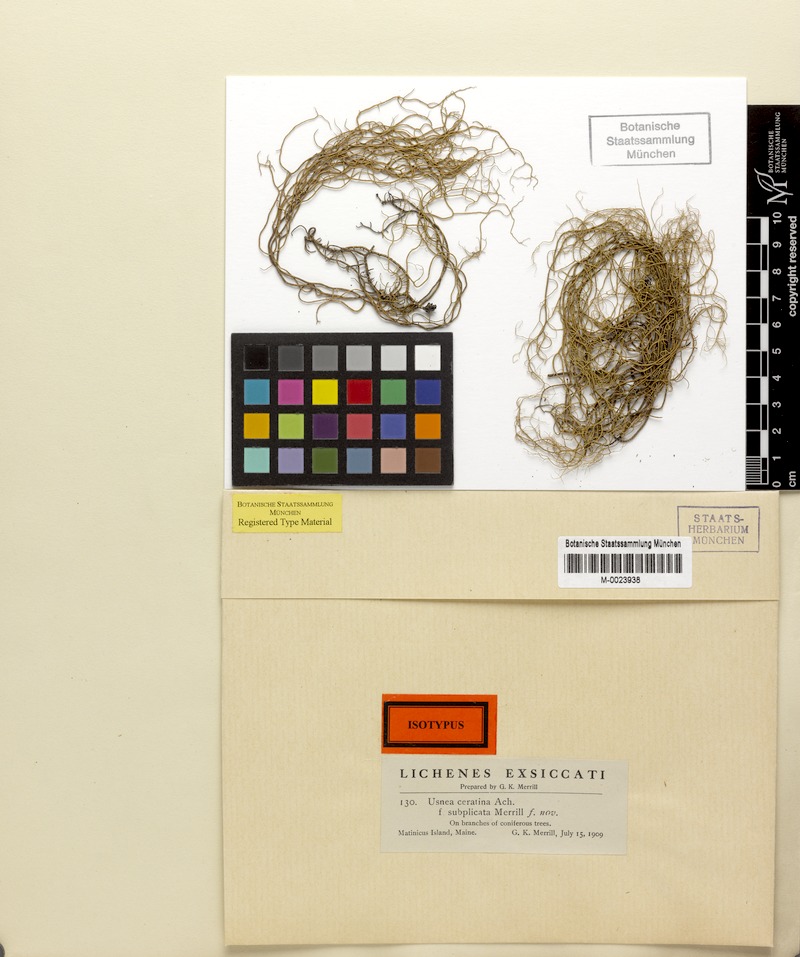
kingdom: Fungi
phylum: Ascomycota
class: Lecanoromycetes
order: Lecanorales
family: Parmeliaceae
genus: Usnea
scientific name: Usnea ceratina
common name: Warty beard lichen
